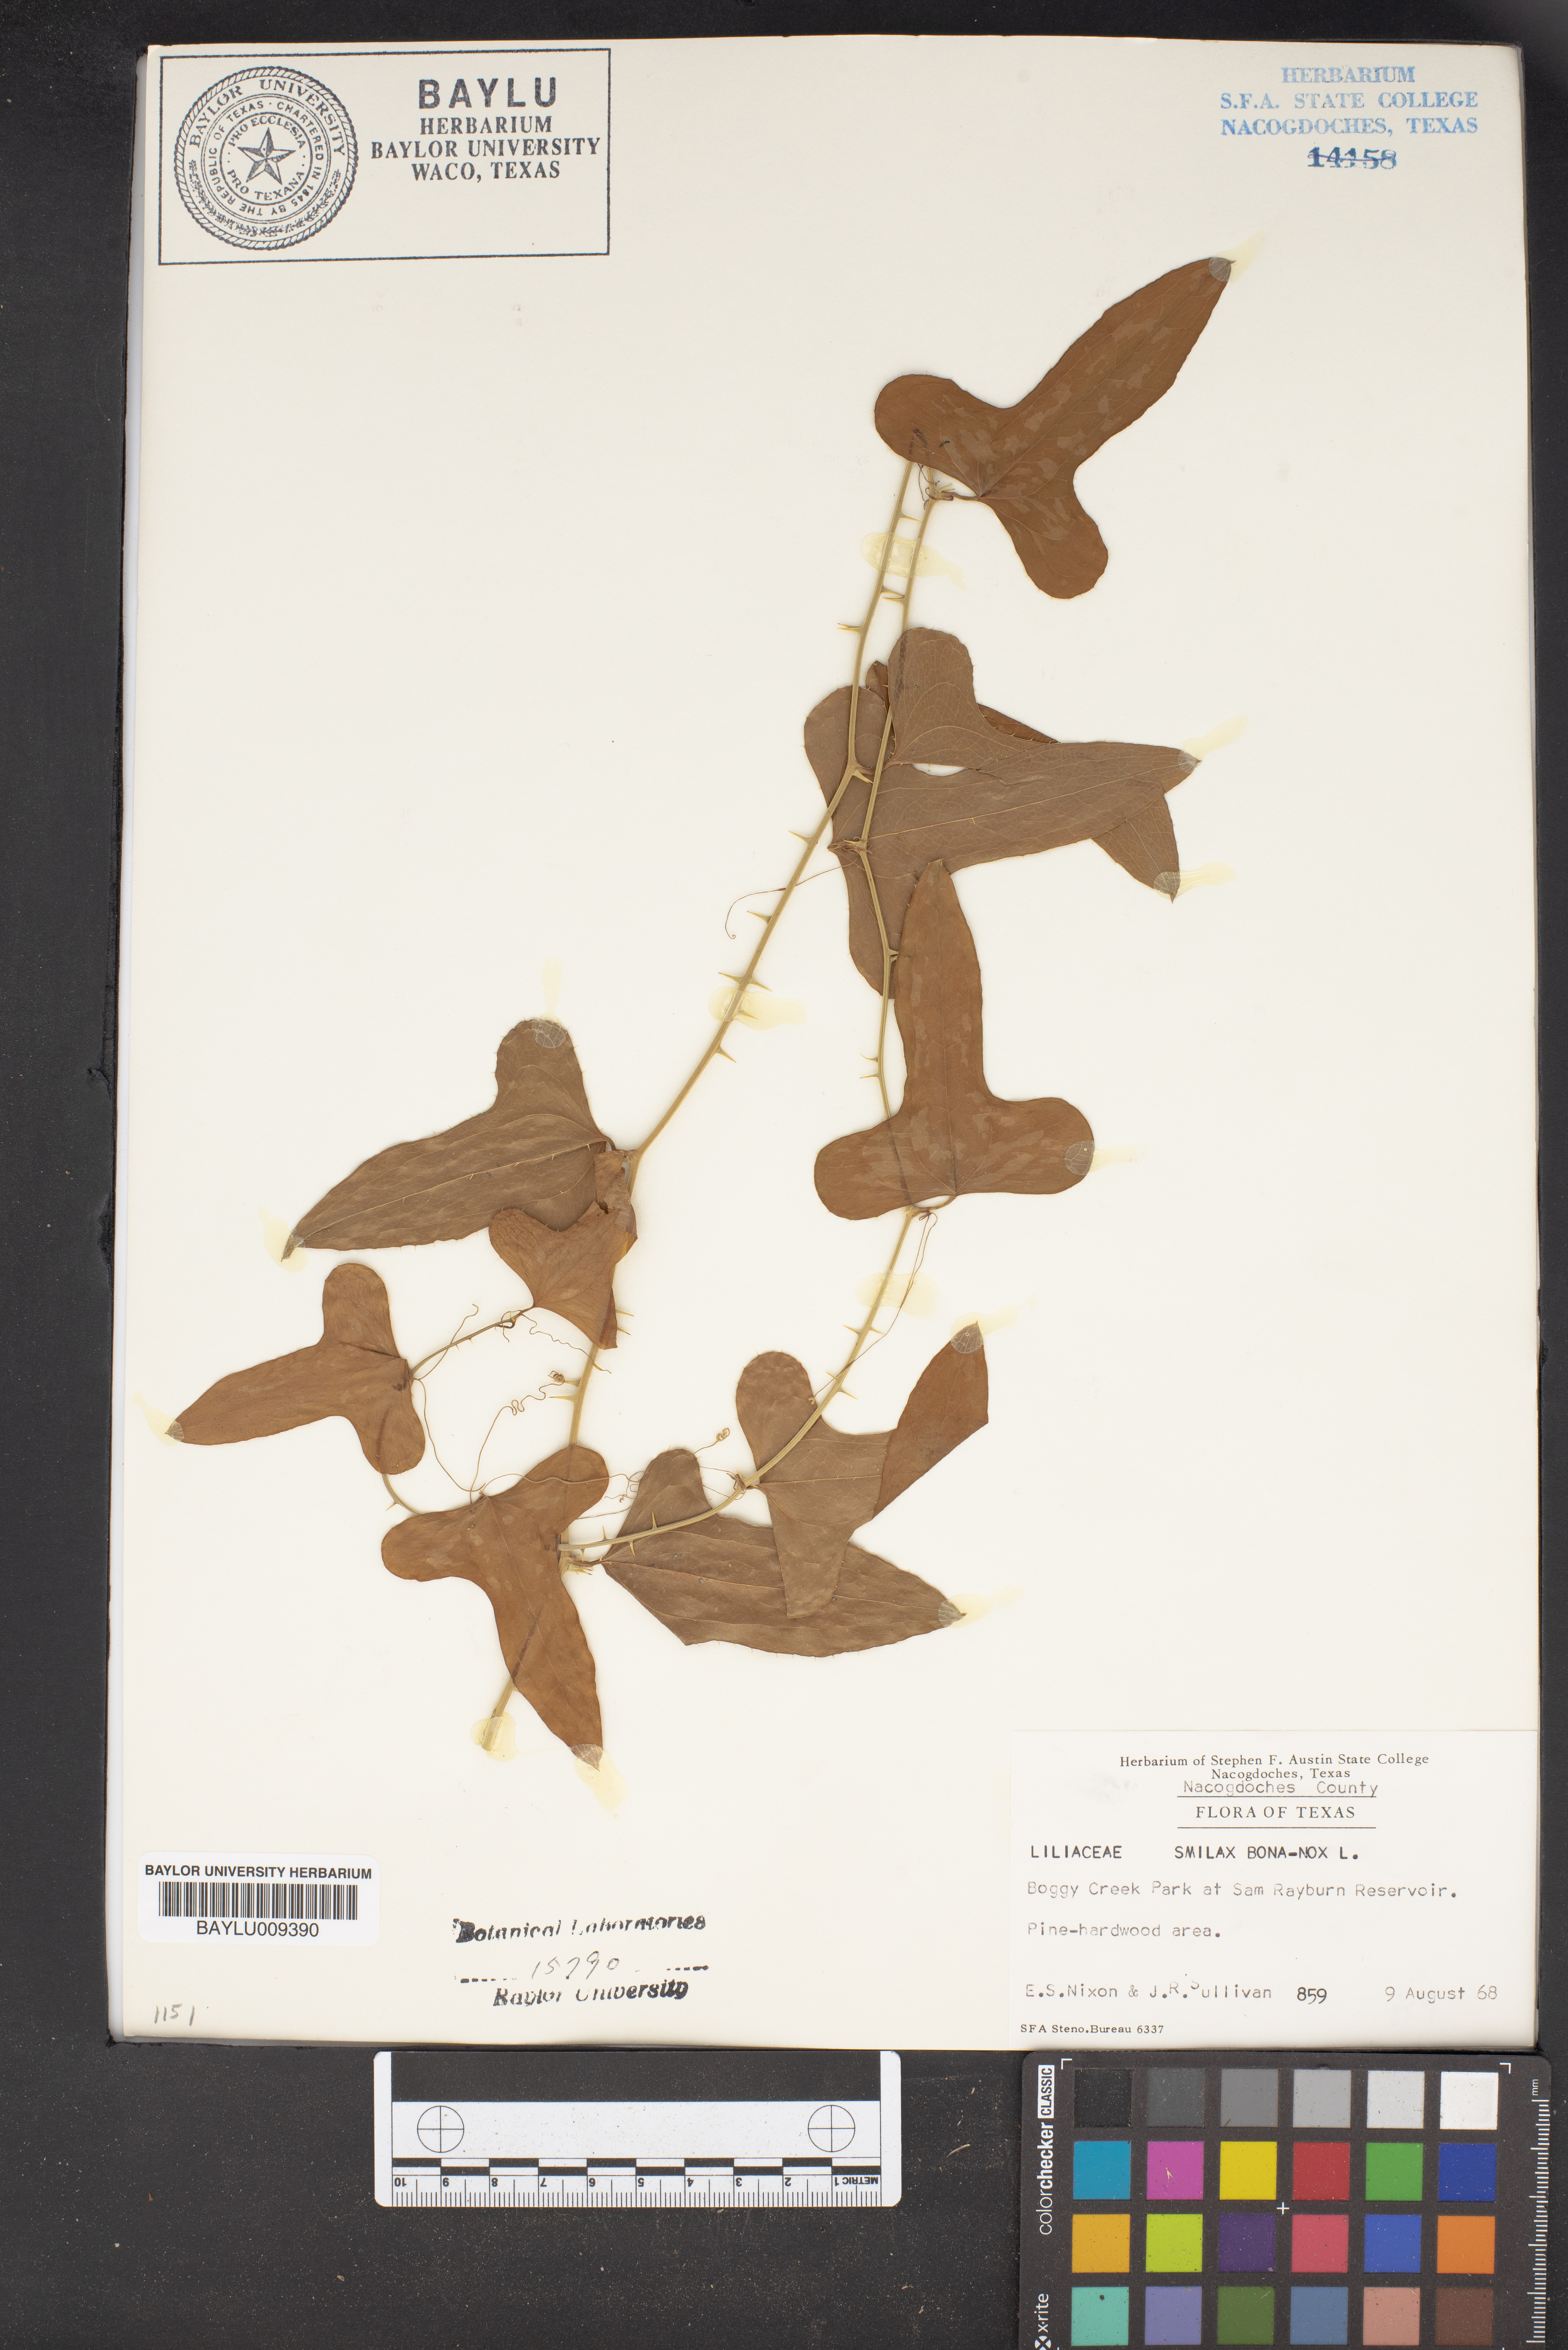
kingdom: Plantae
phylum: Tracheophyta
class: Liliopsida
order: Liliales
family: Smilacaceae
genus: Smilax
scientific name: Smilax bona-nox
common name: Catbrier
